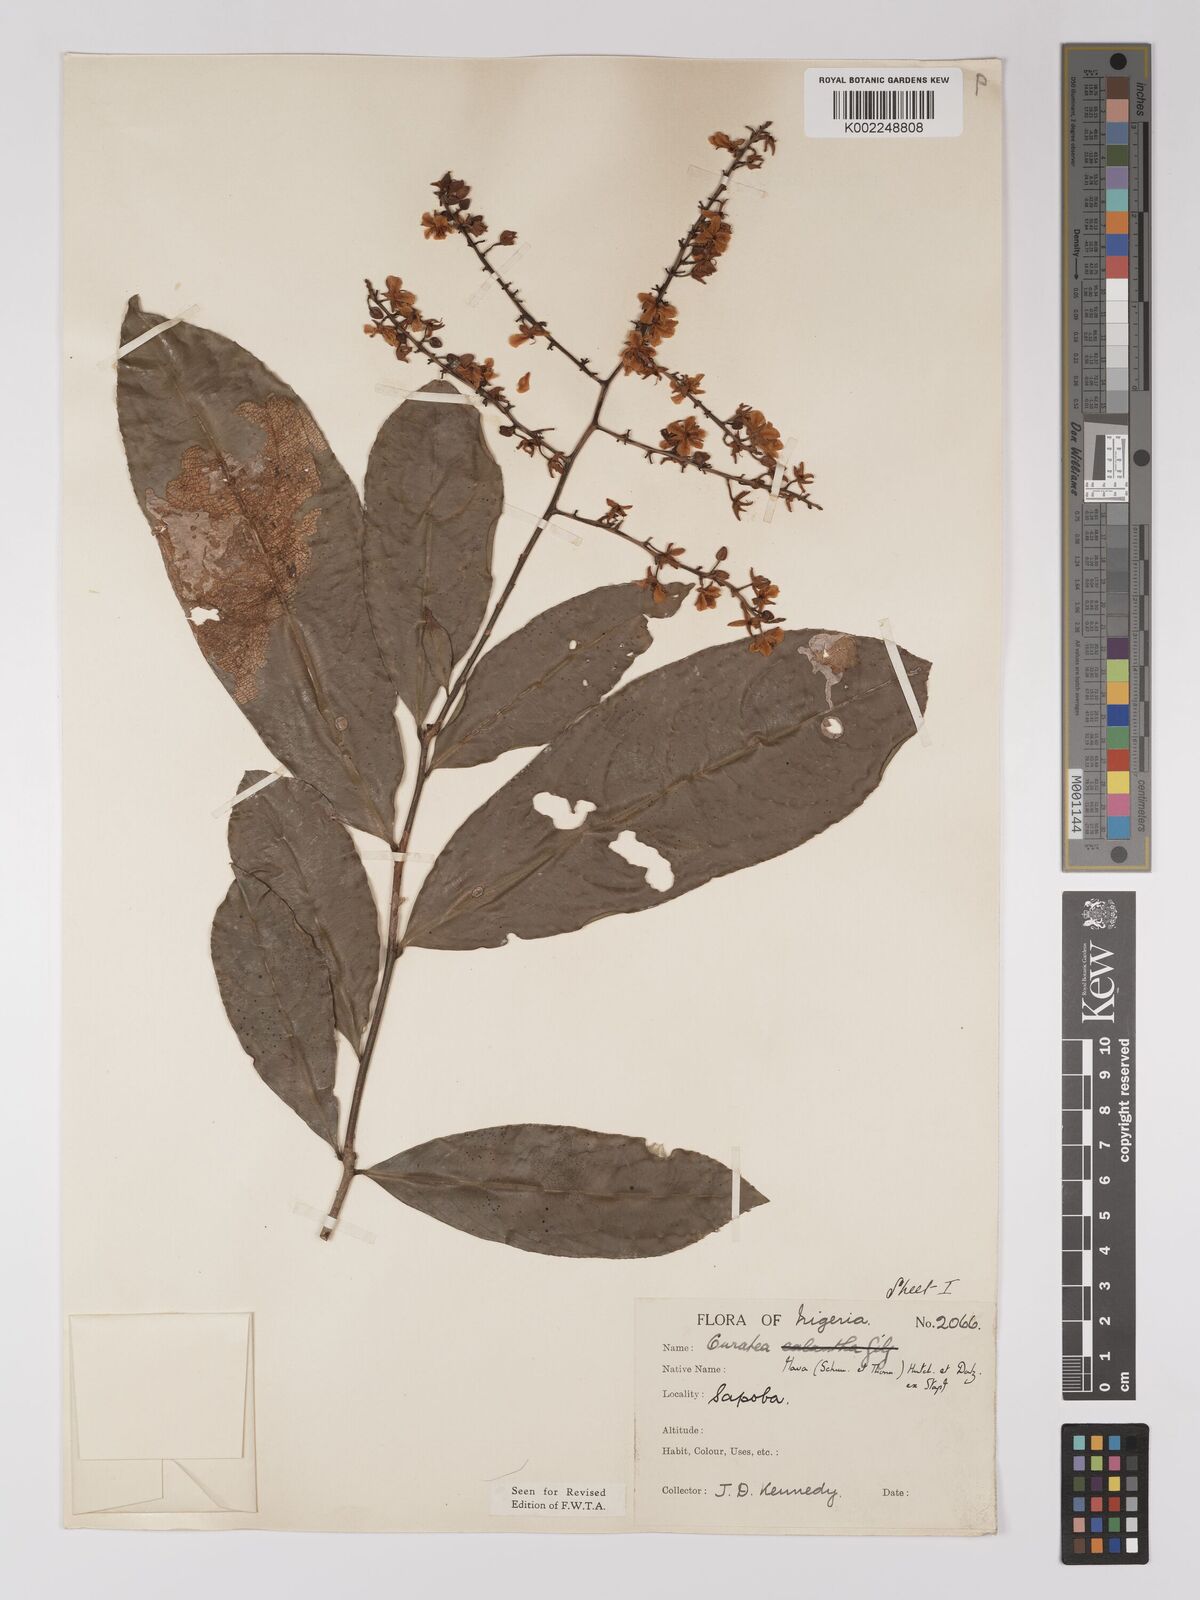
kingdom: Plantae
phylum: Tracheophyta
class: Magnoliopsida
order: Malpighiales
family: Ochnaceae
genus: Campylospermum
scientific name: Campylospermum flavum
